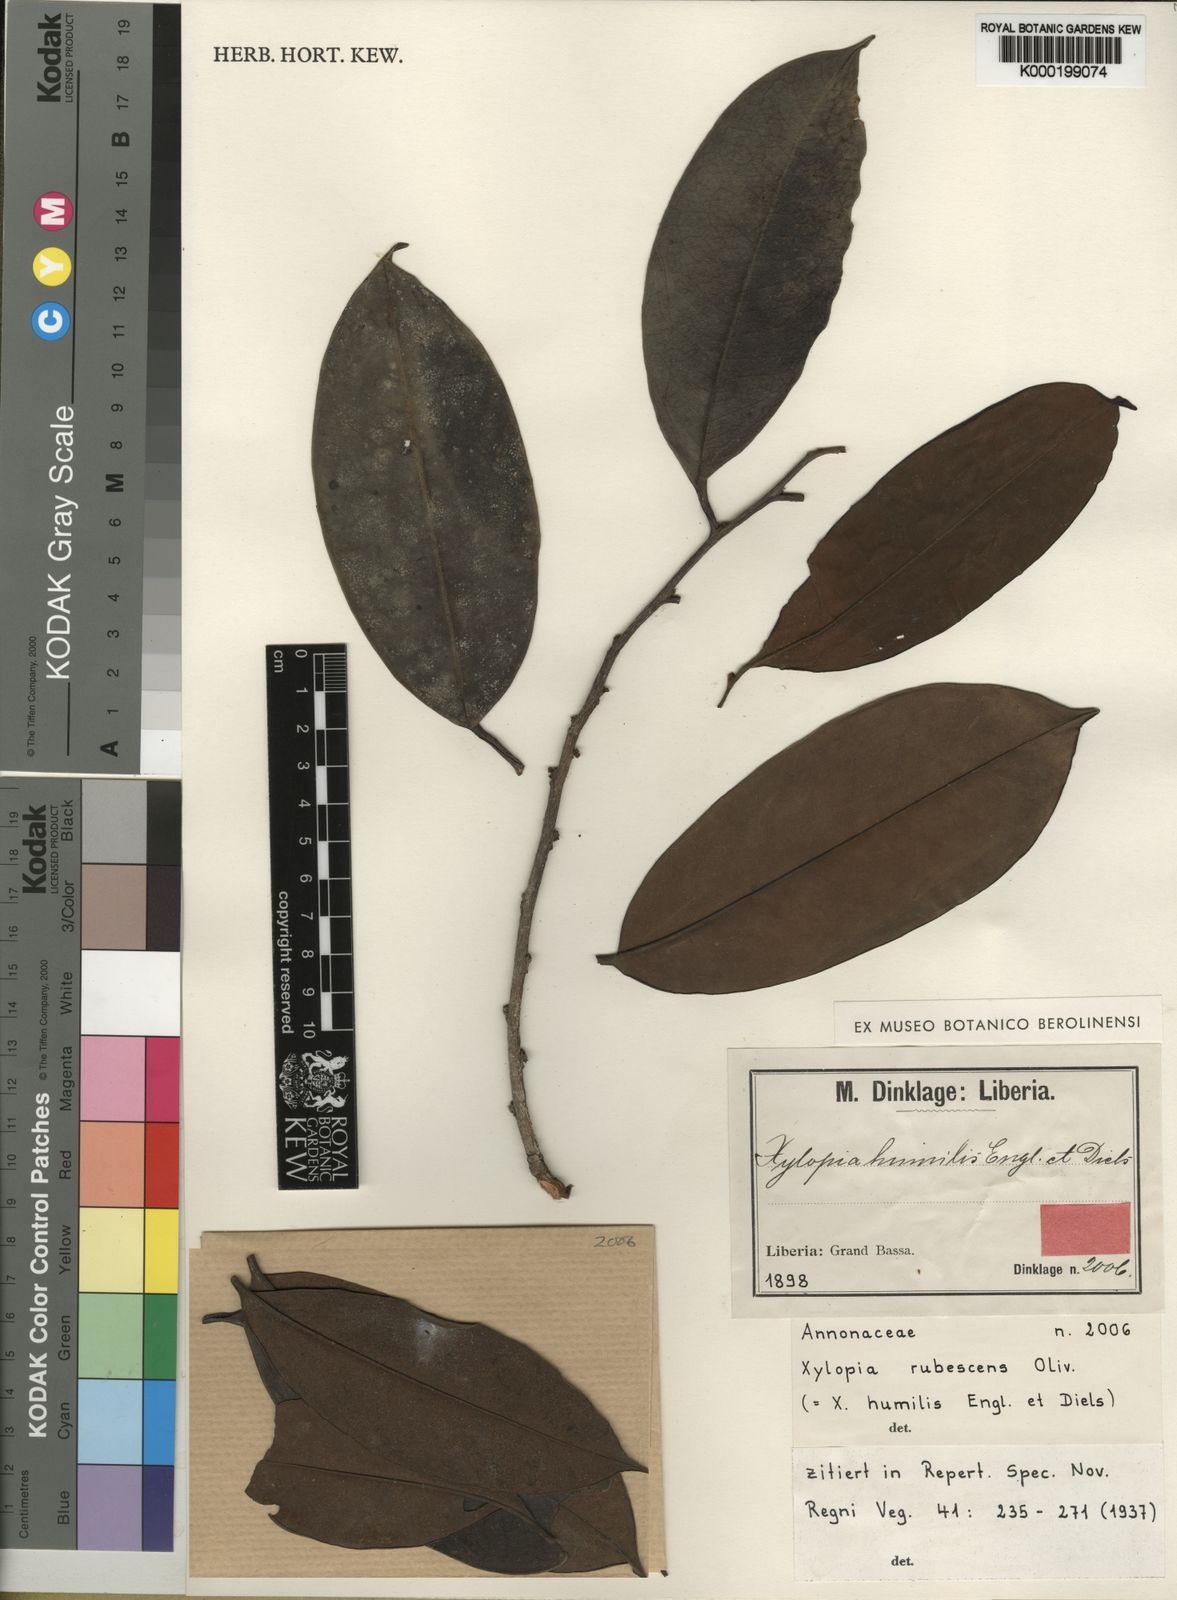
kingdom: Plantae
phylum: Tracheophyta
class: Magnoliopsida
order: Magnoliales
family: Annonaceae
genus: Xylopia
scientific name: Xylopia rubescens
